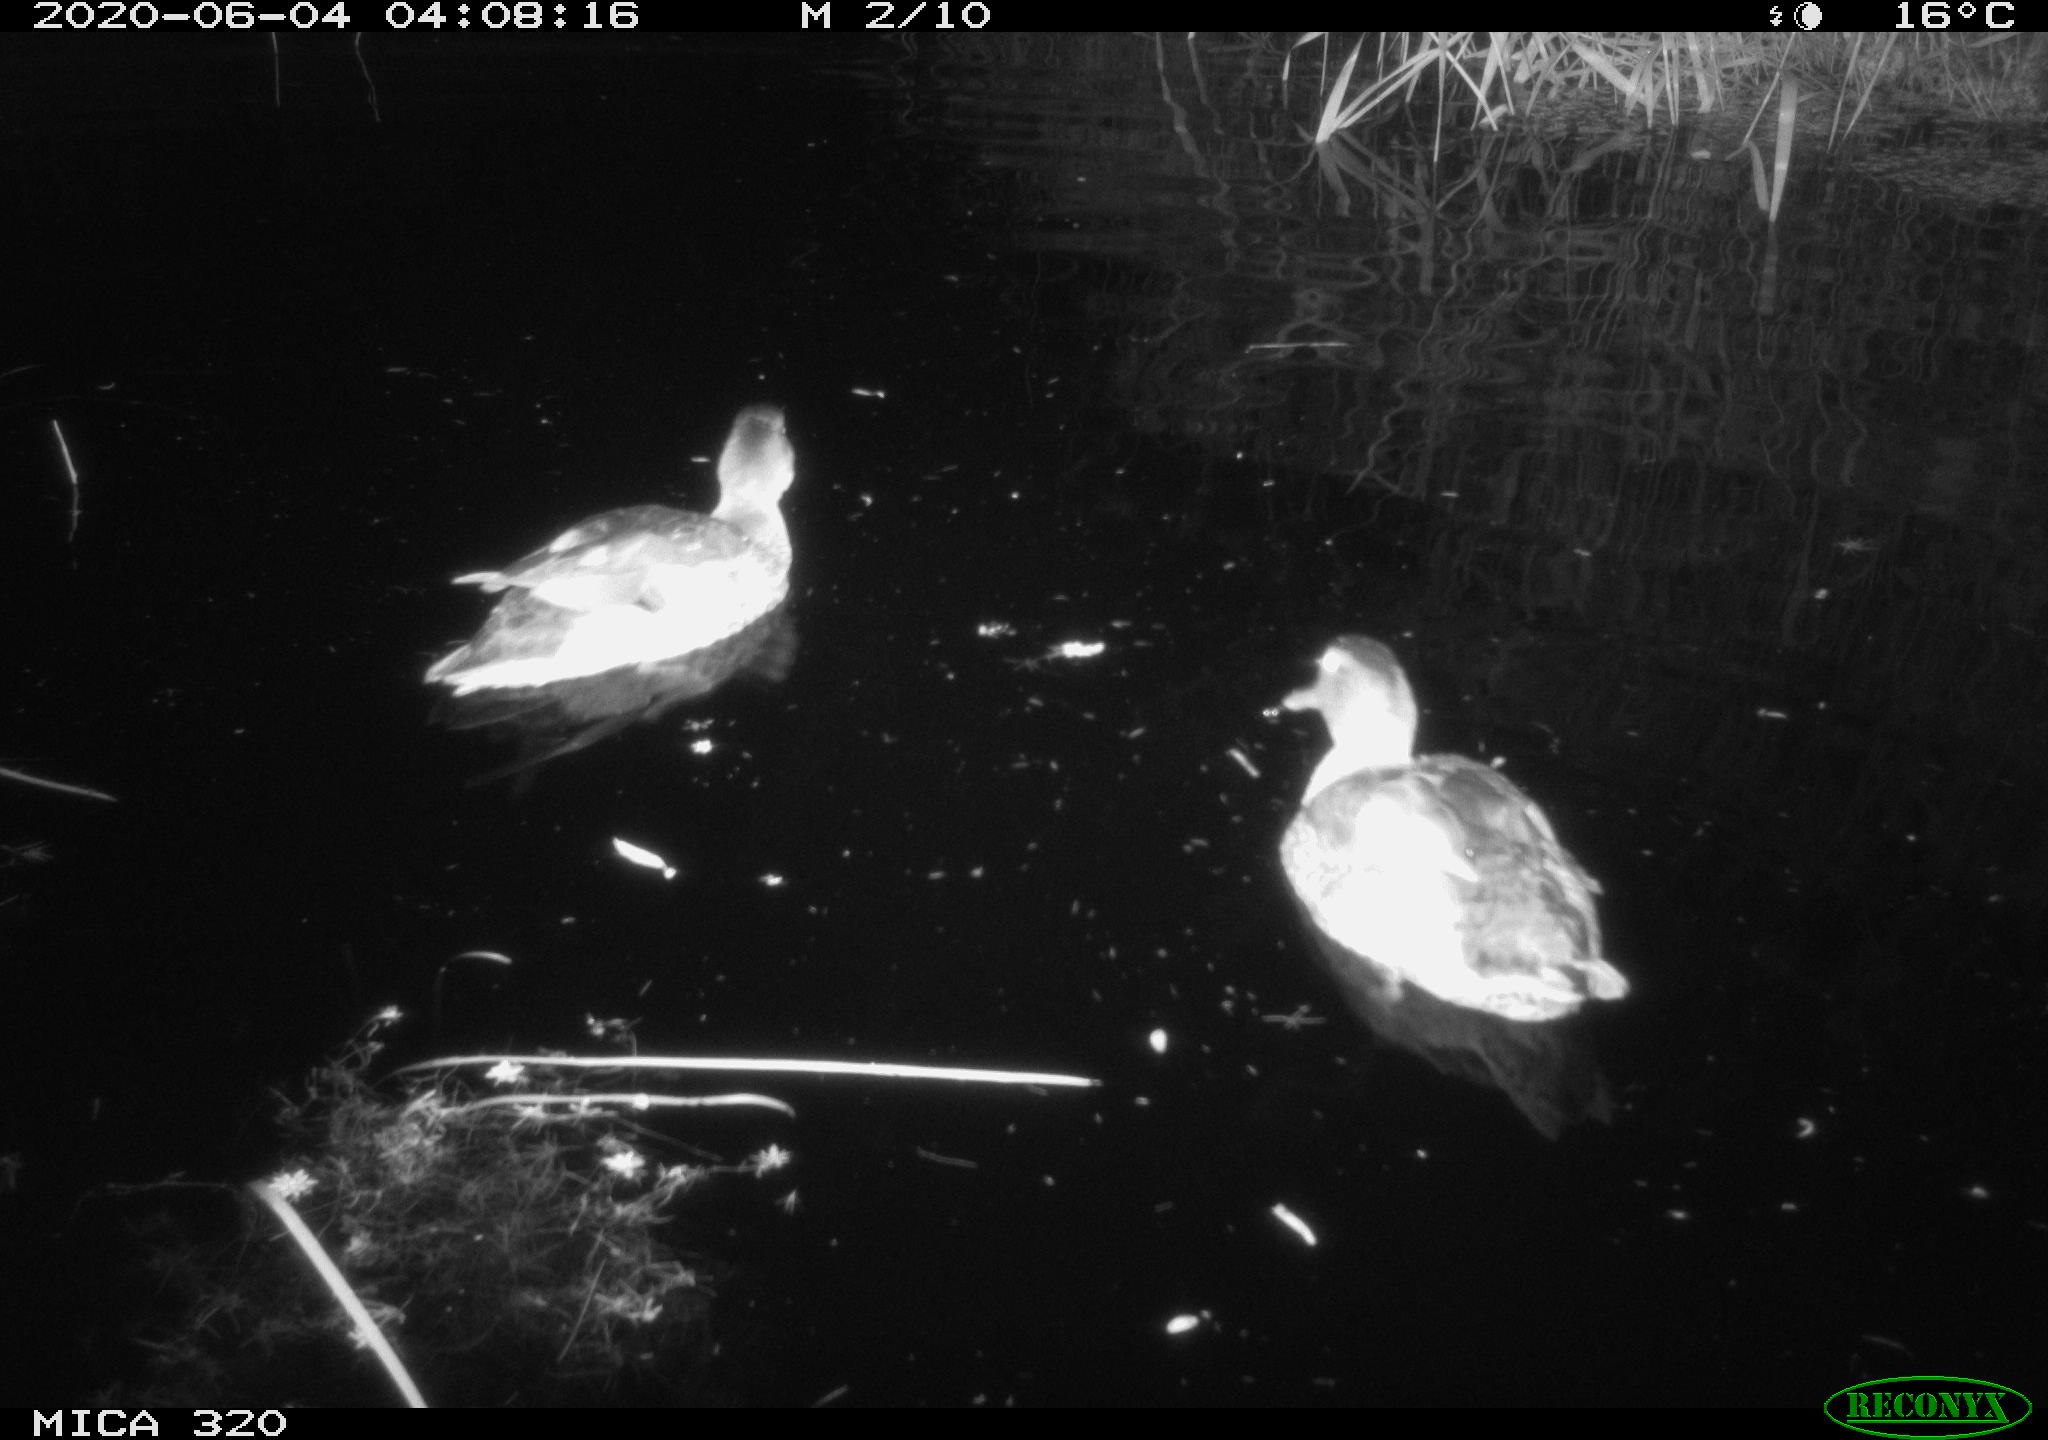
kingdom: Animalia
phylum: Chordata
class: Aves
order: Anseriformes
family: Anatidae
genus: Anas
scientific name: Anas platyrhynchos
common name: Mallard
